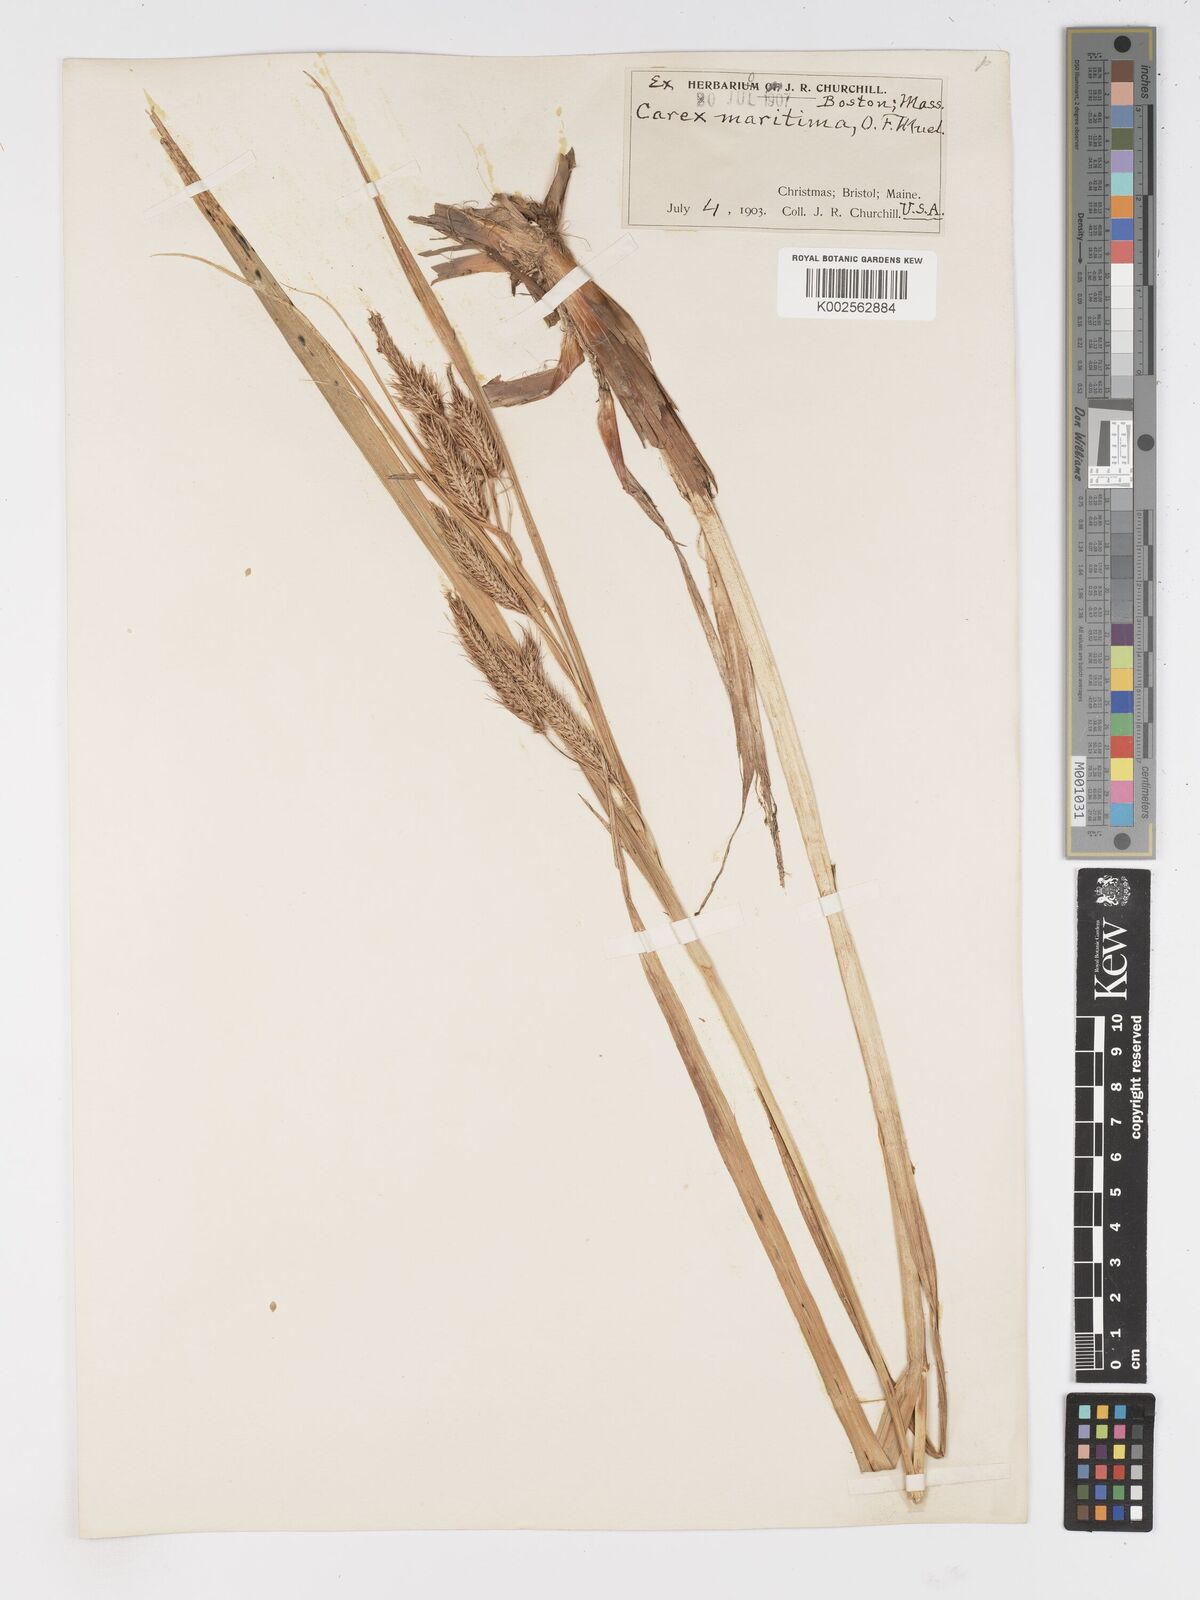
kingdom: Plantae
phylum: Tracheophyta
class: Liliopsida
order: Poales
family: Cyperaceae
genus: Carex
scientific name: Carex paleacea
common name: Chaffy sedge
